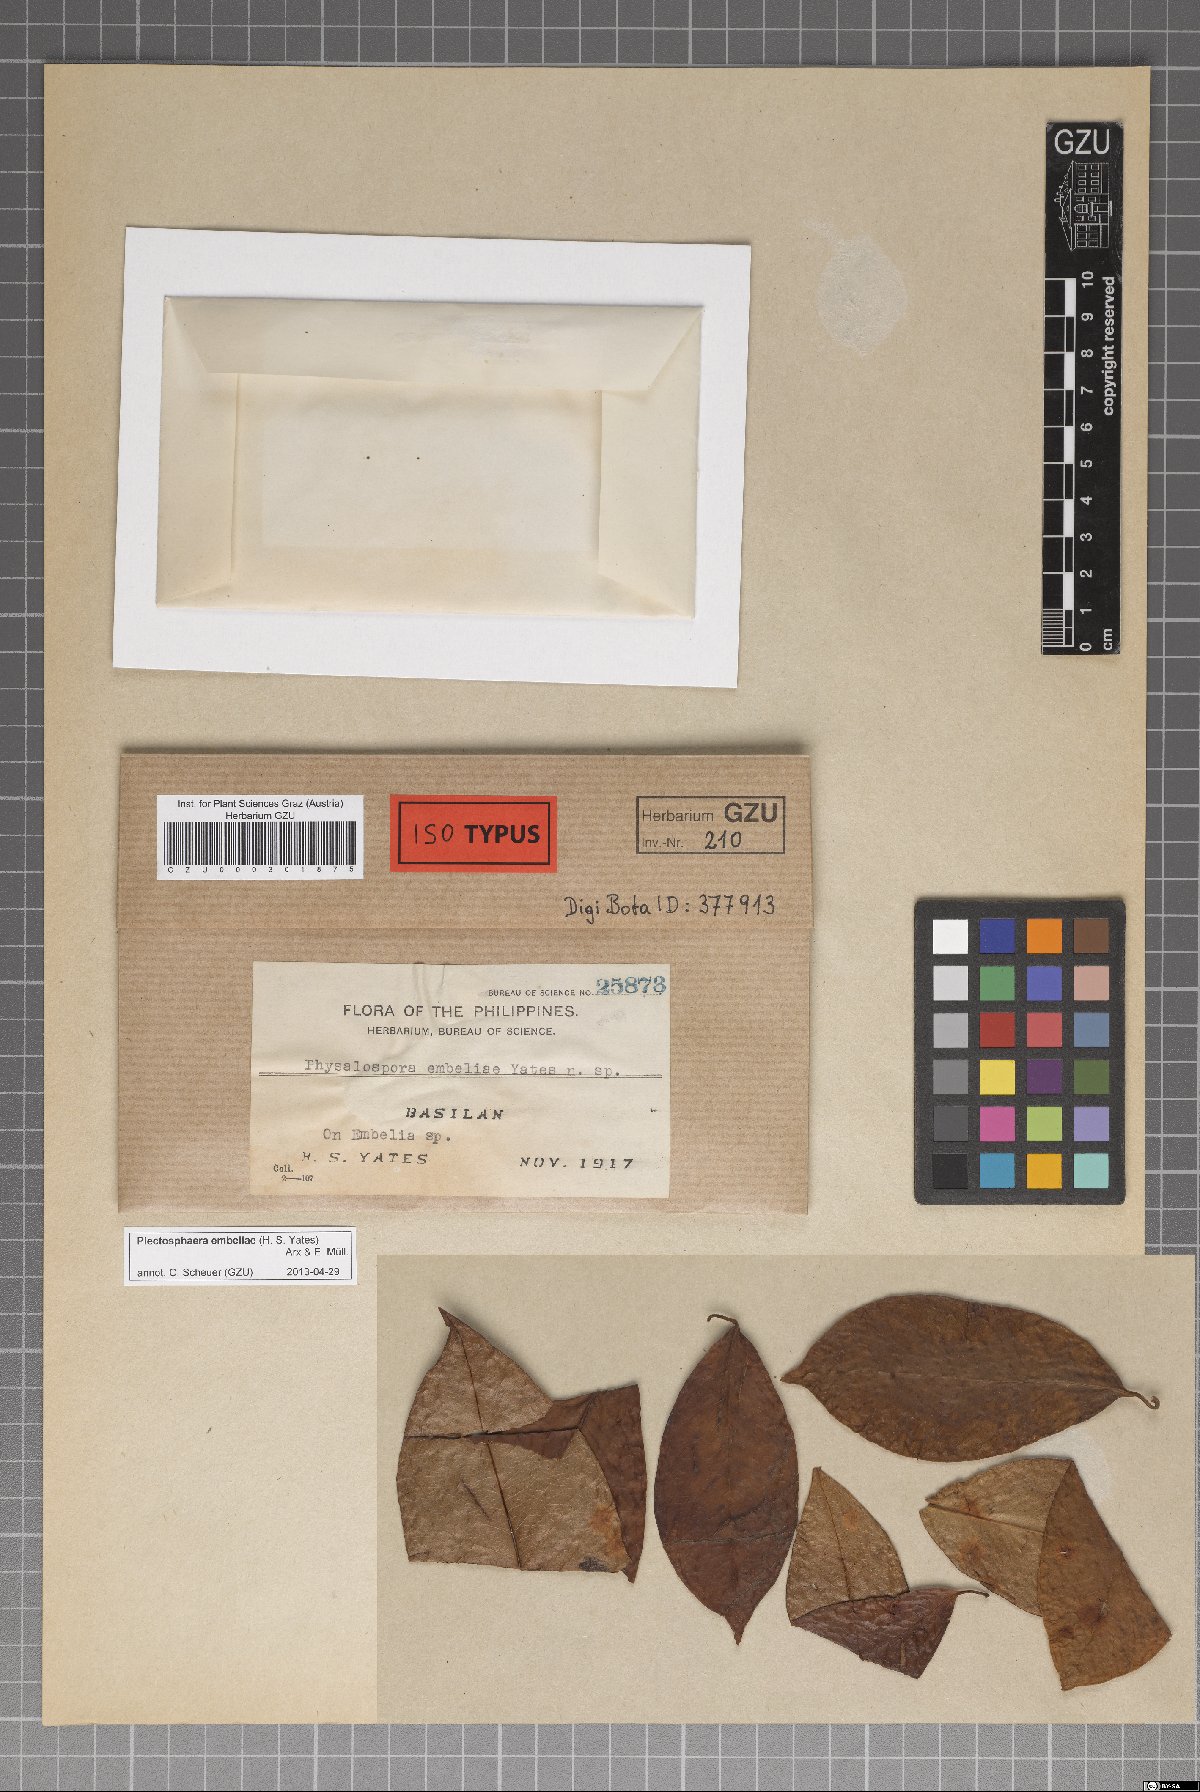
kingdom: Fungi
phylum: Ascomycota
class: Sordariomycetes
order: Xylariales
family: Xylariaceae
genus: Plectosphaera
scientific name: Plectosphaera embeliae
